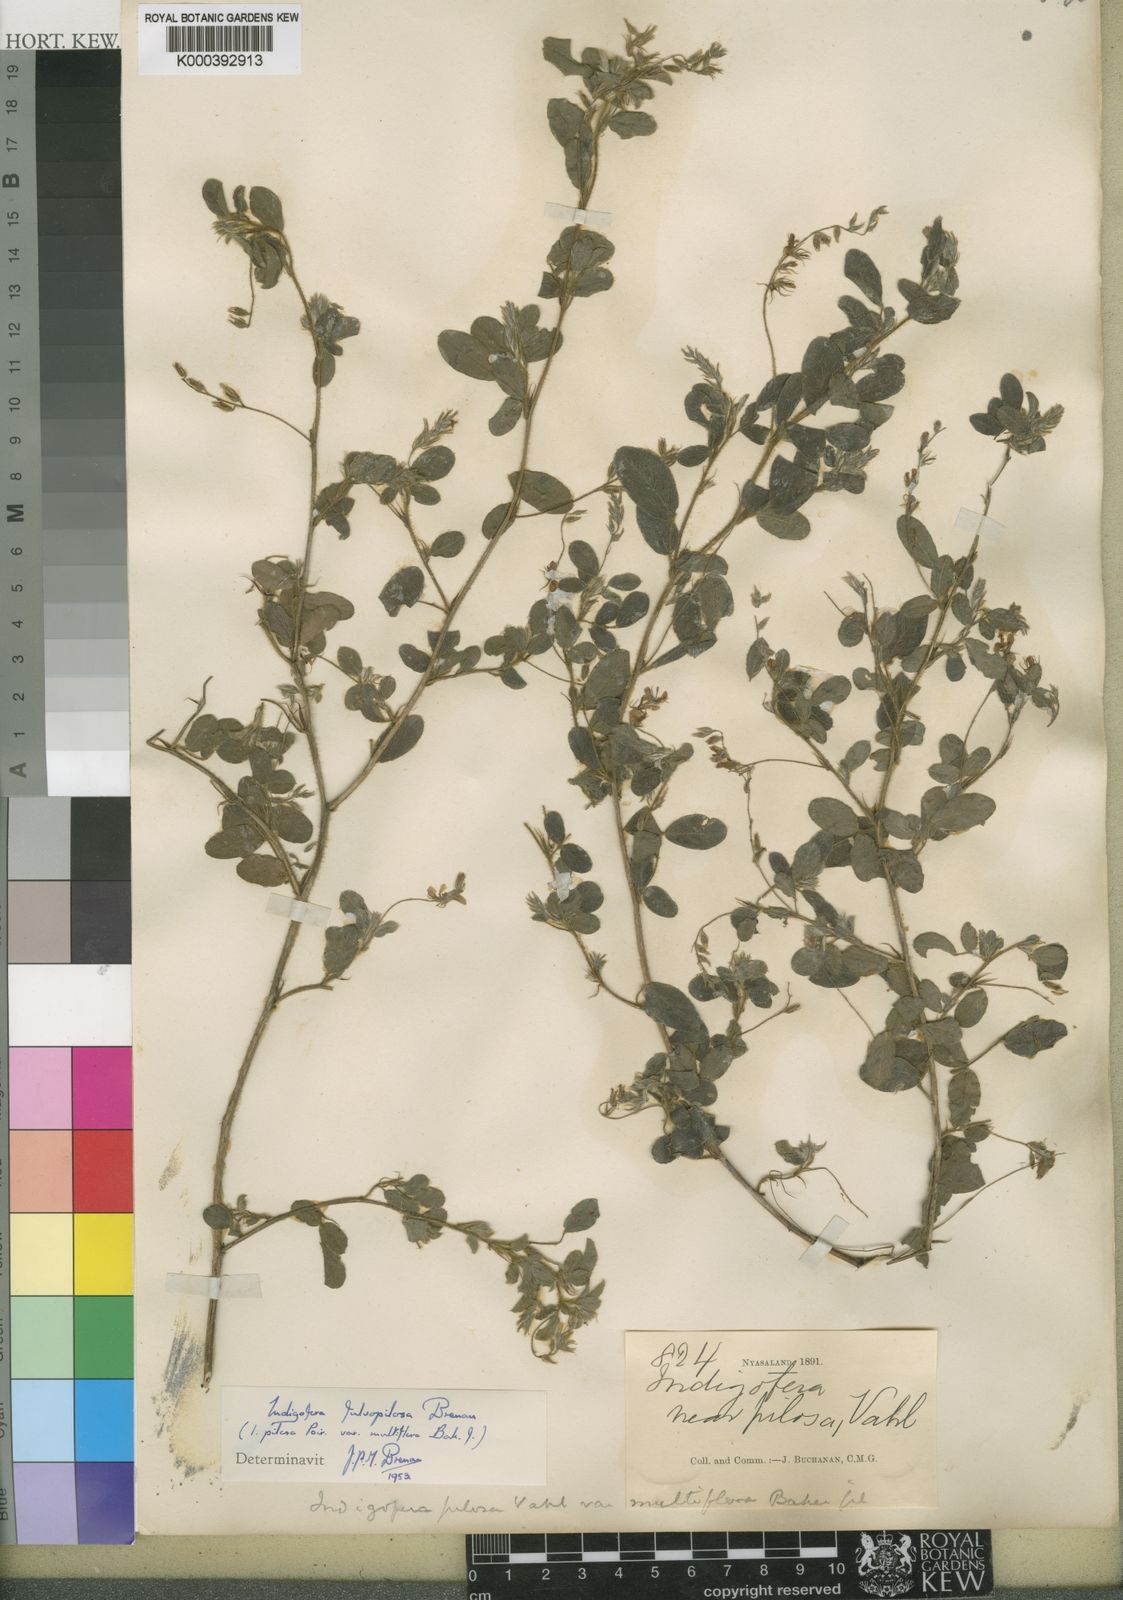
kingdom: Plantae
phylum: Tracheophyta
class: Magnoliopsida
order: Fabales
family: Fabaceae
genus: Indigofera
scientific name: Indigofera pilosa
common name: Softhairy indigo
